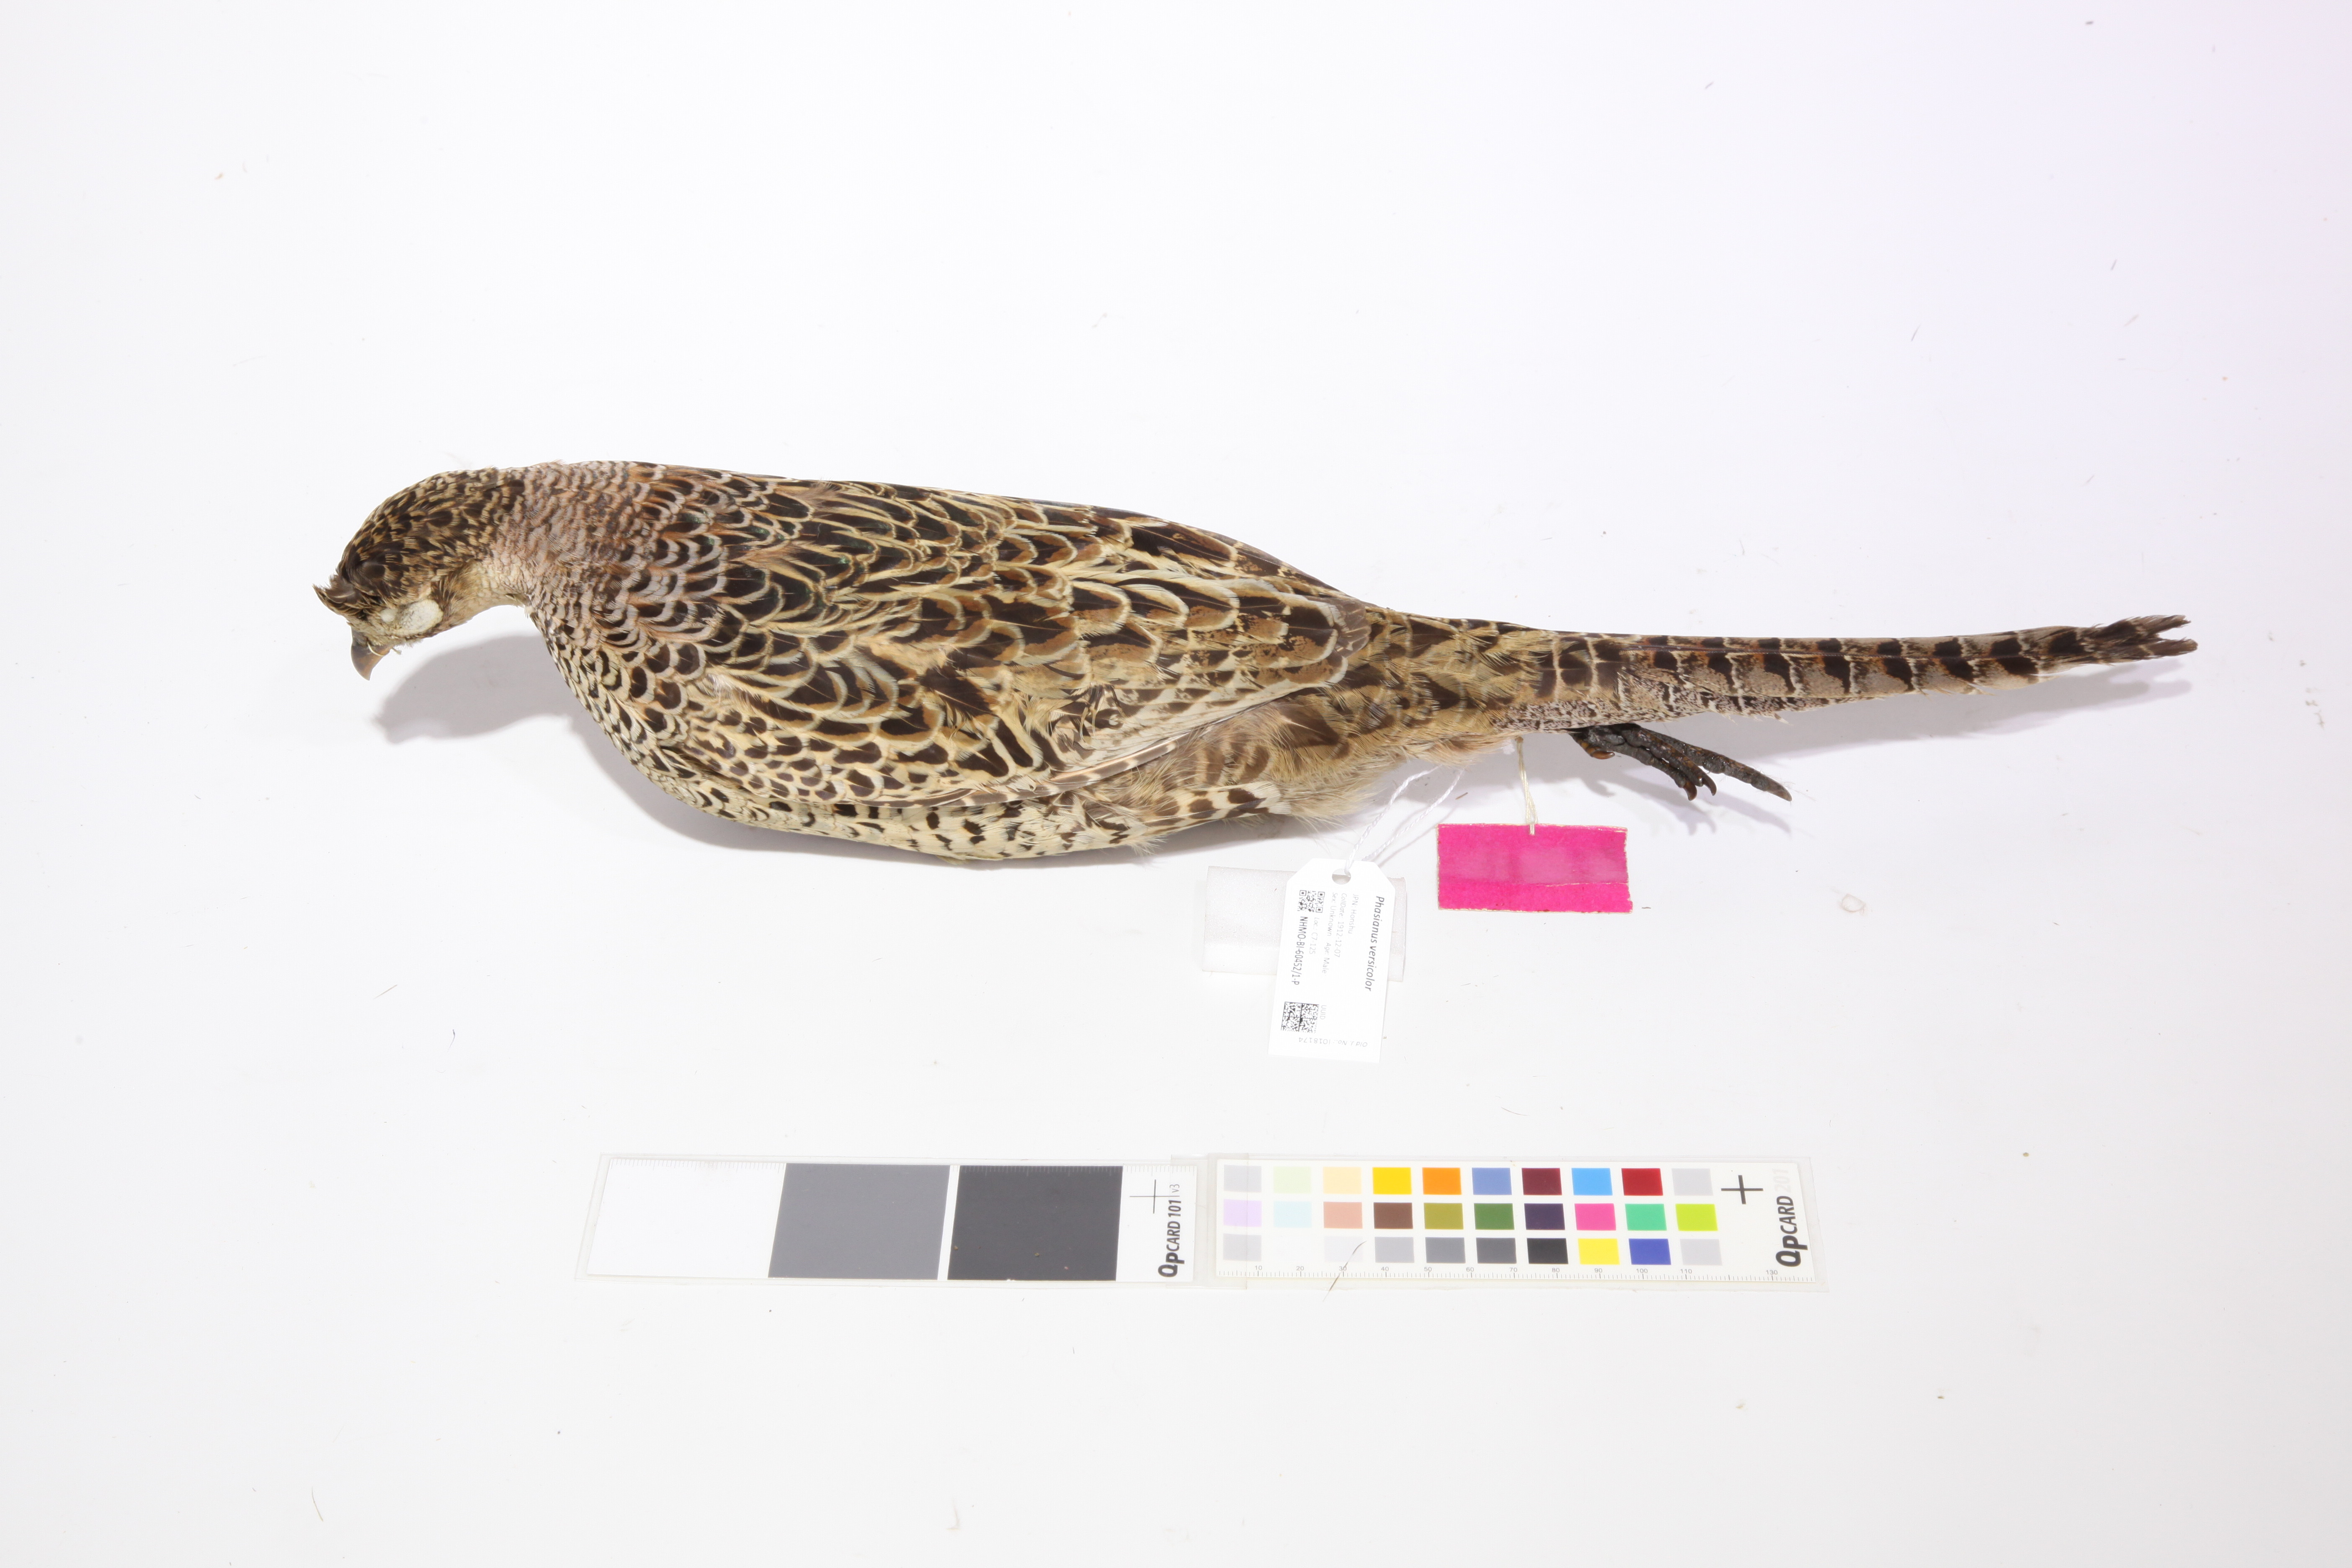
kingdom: Animalia
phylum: Chordata
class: Aves
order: Galliformes
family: Phasianidae
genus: Phasianus
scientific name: Phasianus versicolor
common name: Green pheasant
